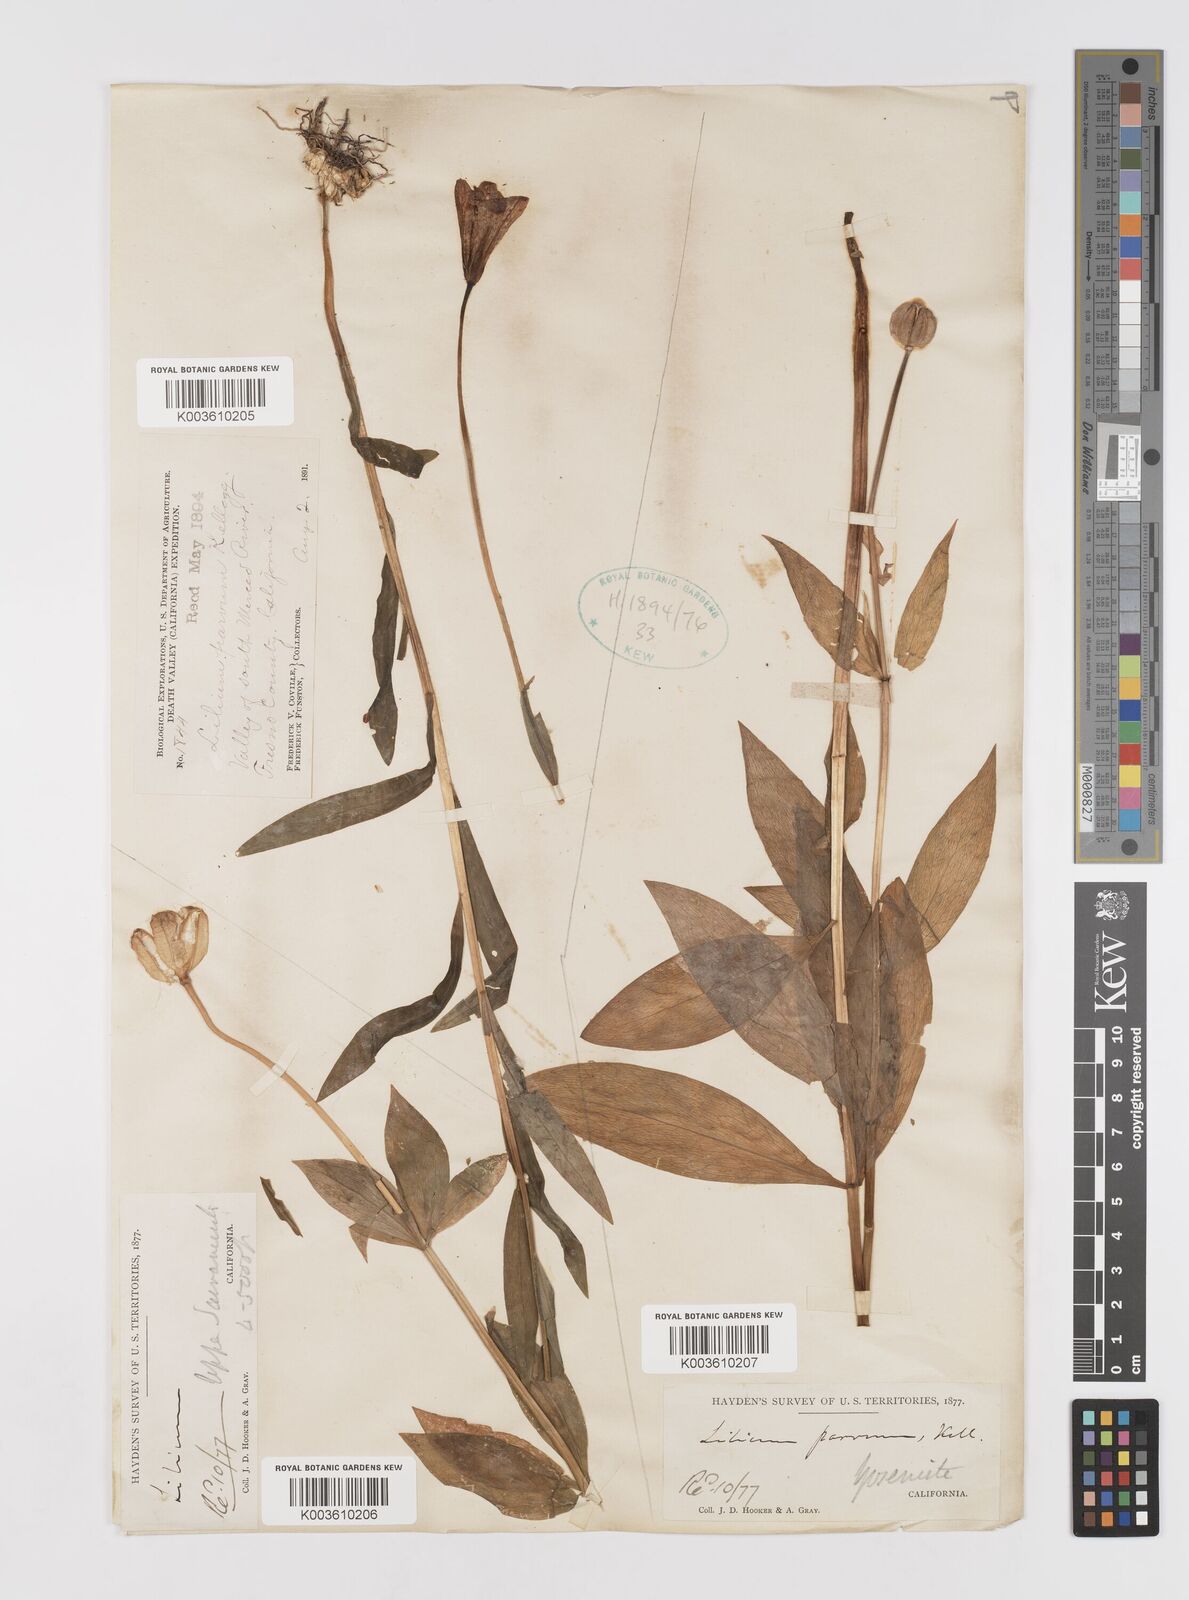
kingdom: Plantae
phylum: Tracheophyta
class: Liliopsida
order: Liliales
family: Liliaceae
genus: Lilium
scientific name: Lilium parvum
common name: Alpine lily
